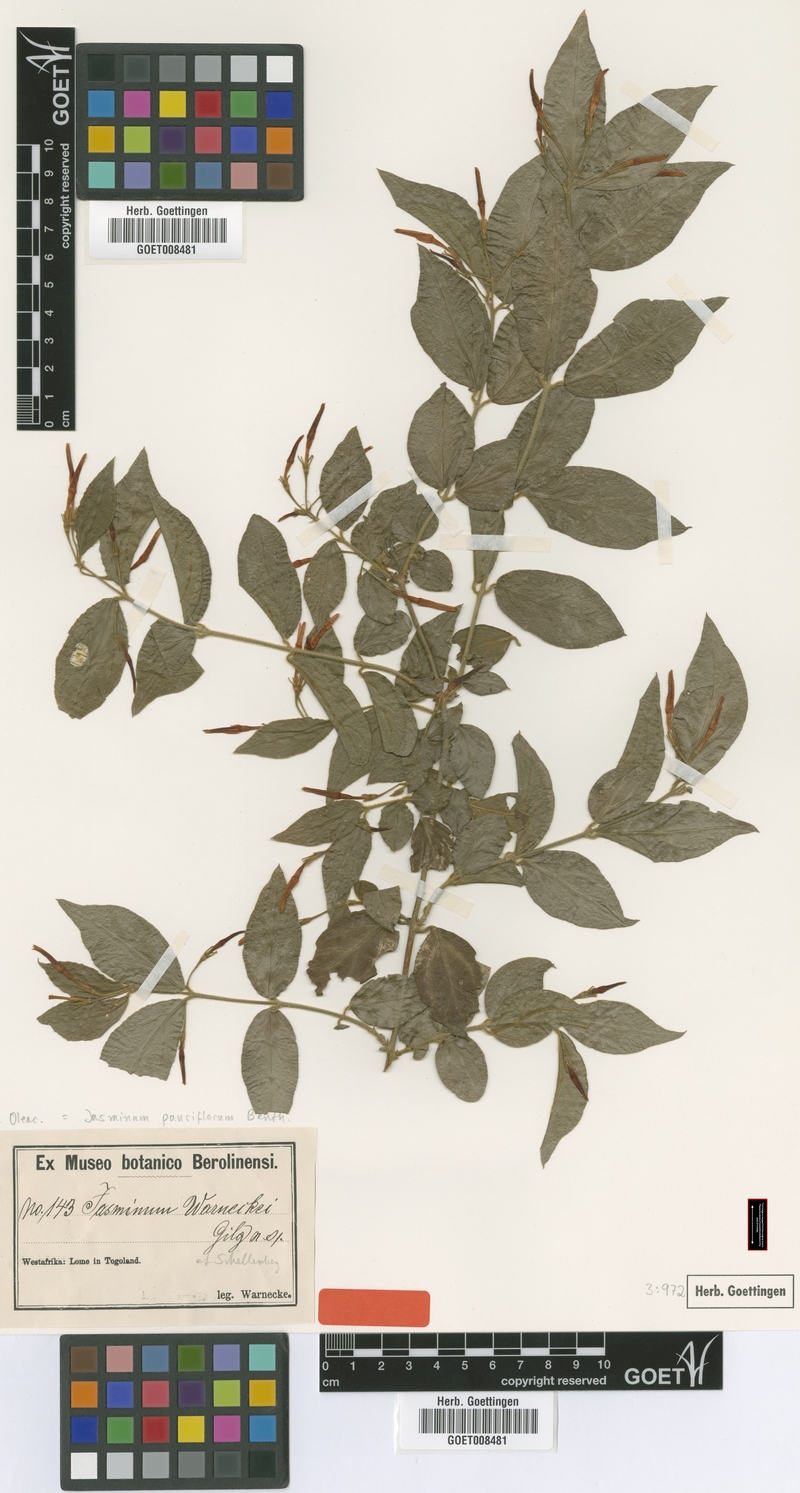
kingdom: Plantae
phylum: Tracheophyta
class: Magnoliopsida
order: Lamiales
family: Oleaceae
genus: Jasminum
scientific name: Jasminum pauciflorum
